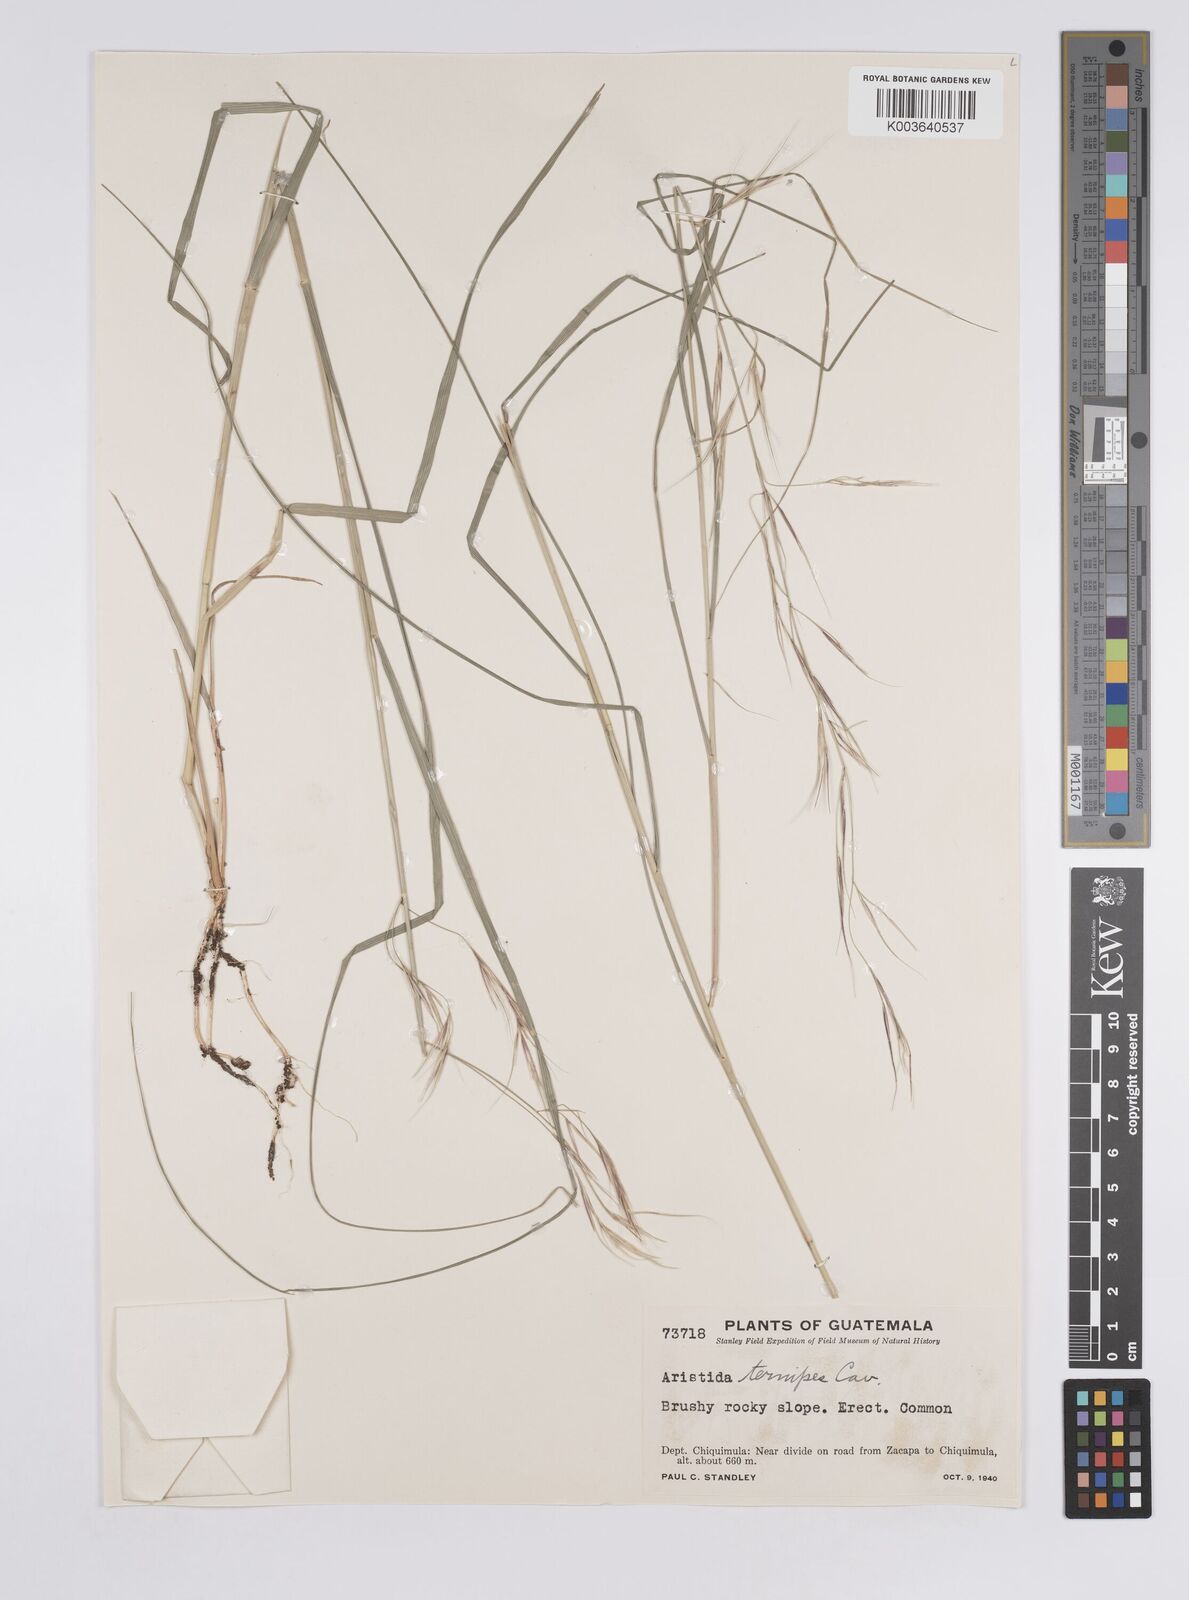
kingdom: Plantae
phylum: Tracheophyta
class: Liliopsida
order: Poales
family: Poaceae
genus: Aristida
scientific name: Aristida ternipes
